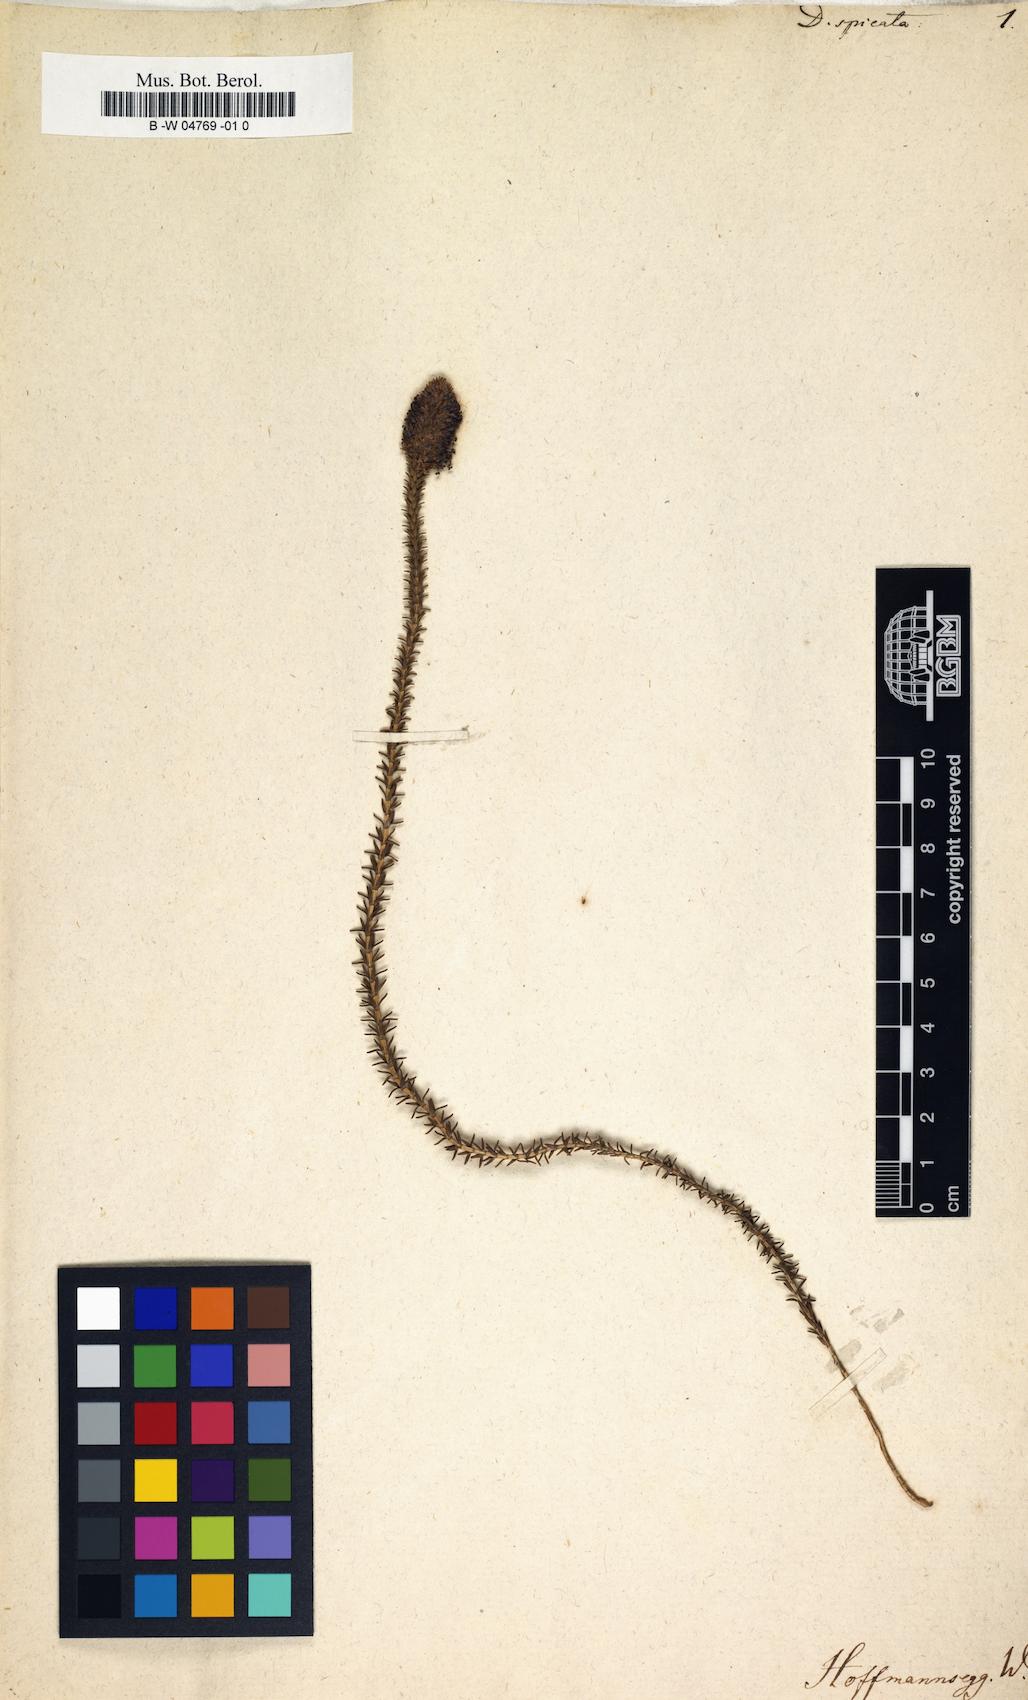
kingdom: Plantae
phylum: Tracheophyta
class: Magnoliopsida
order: Sapindales
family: Rutaceae
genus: Agathosma
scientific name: Agathosma Bucco spicata
